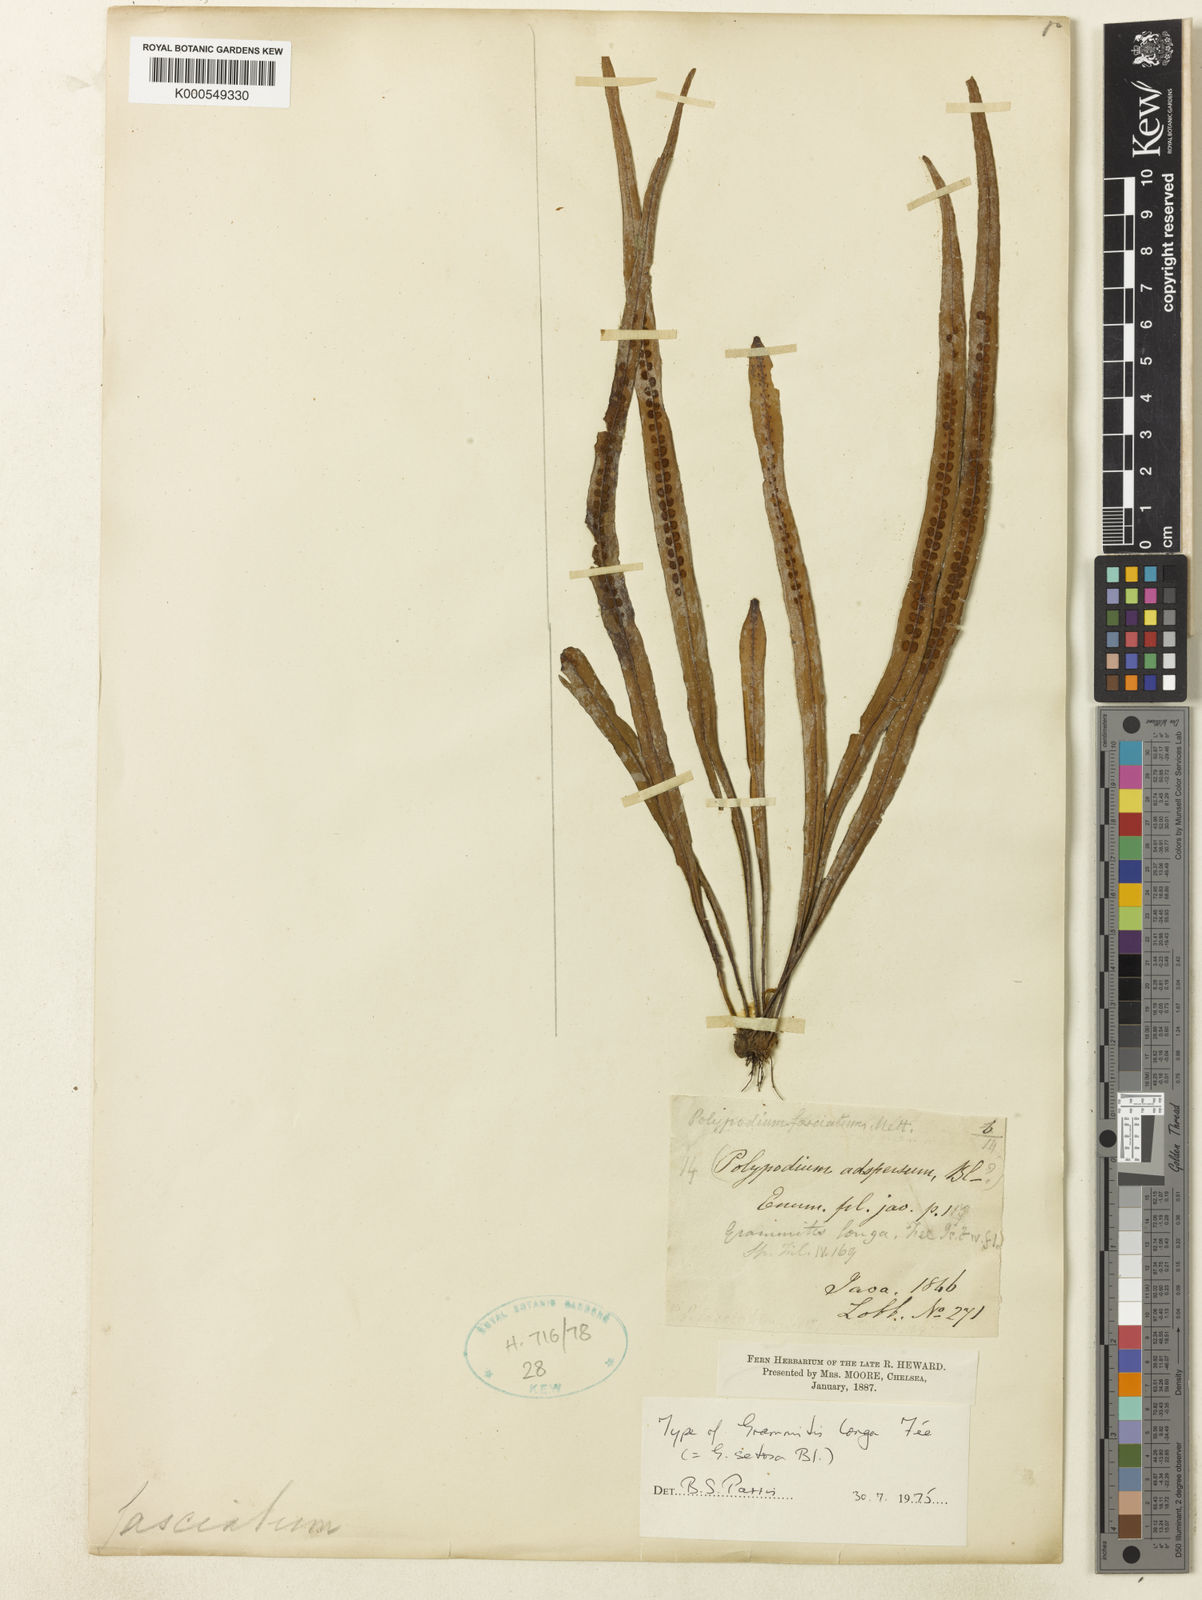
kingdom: Plantae
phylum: Tracheophyta
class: Polypodiopsida
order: Polypodiales
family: Polypodiaceae
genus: Oreogrammitis
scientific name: Oreogrammitis setosa
